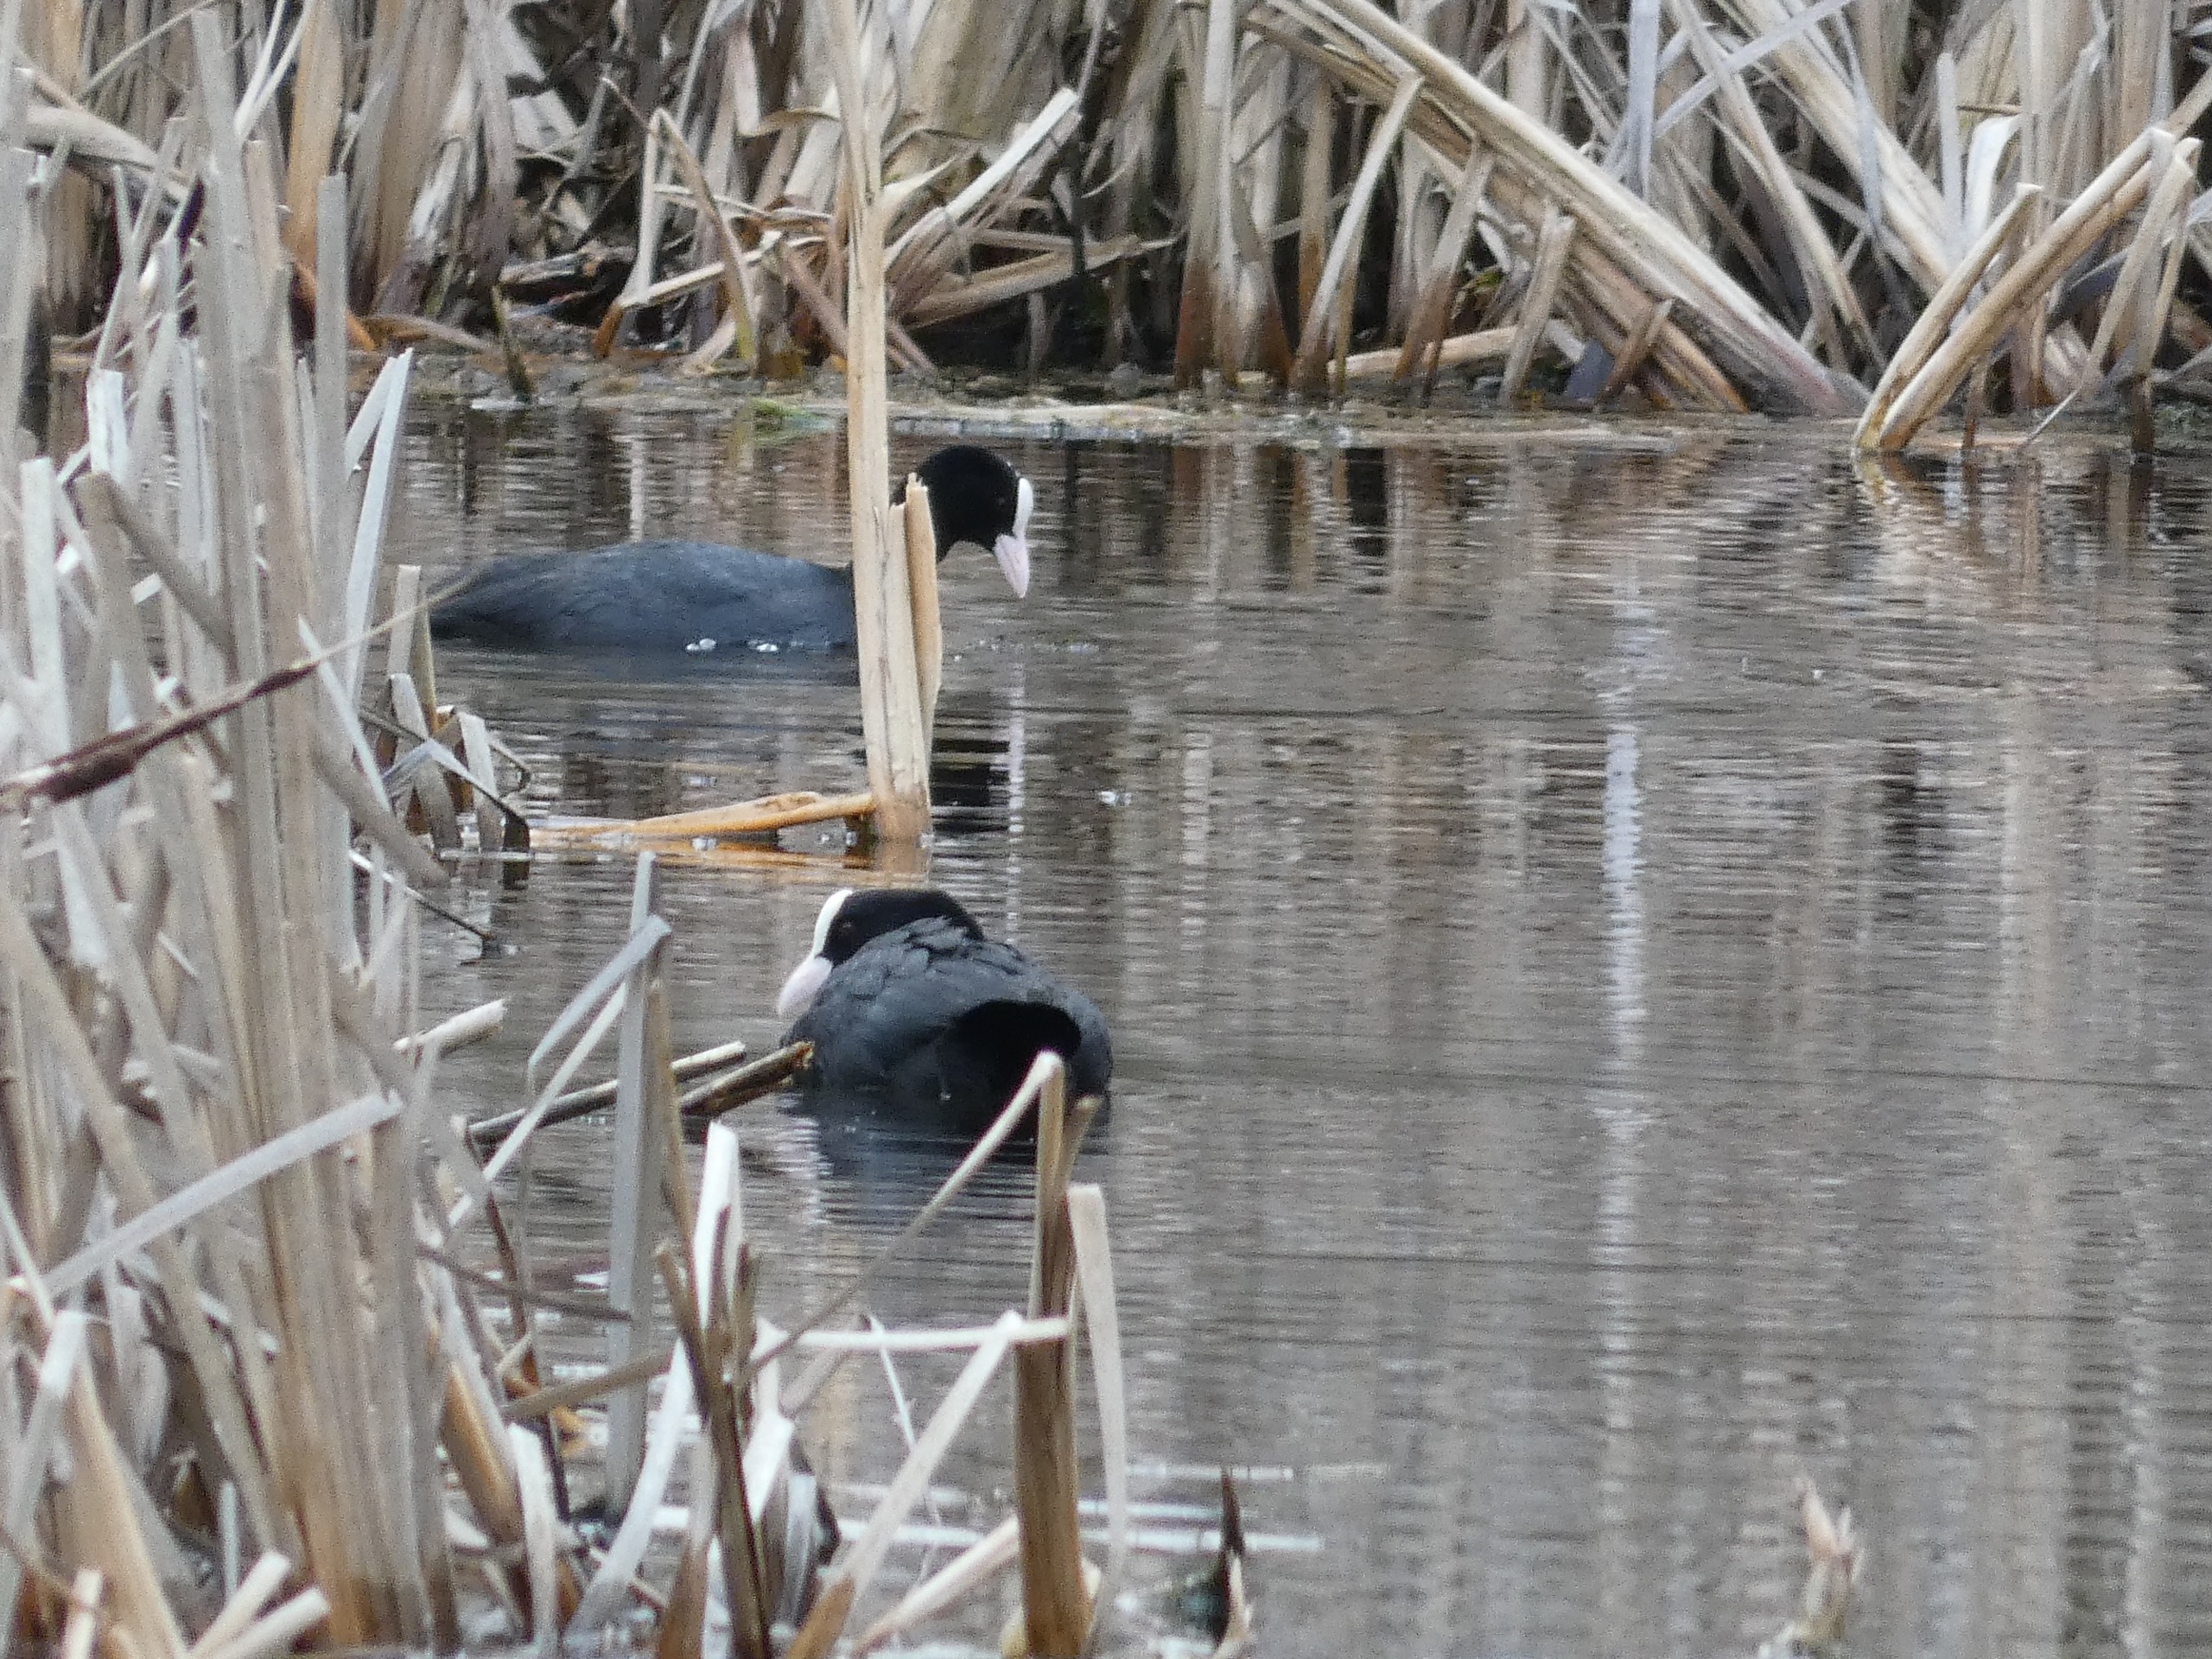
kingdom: Animalia
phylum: Chordata
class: Aves
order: Gruiformes
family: Rallidae
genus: Fulica
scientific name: Fulica atra
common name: Blishøne
